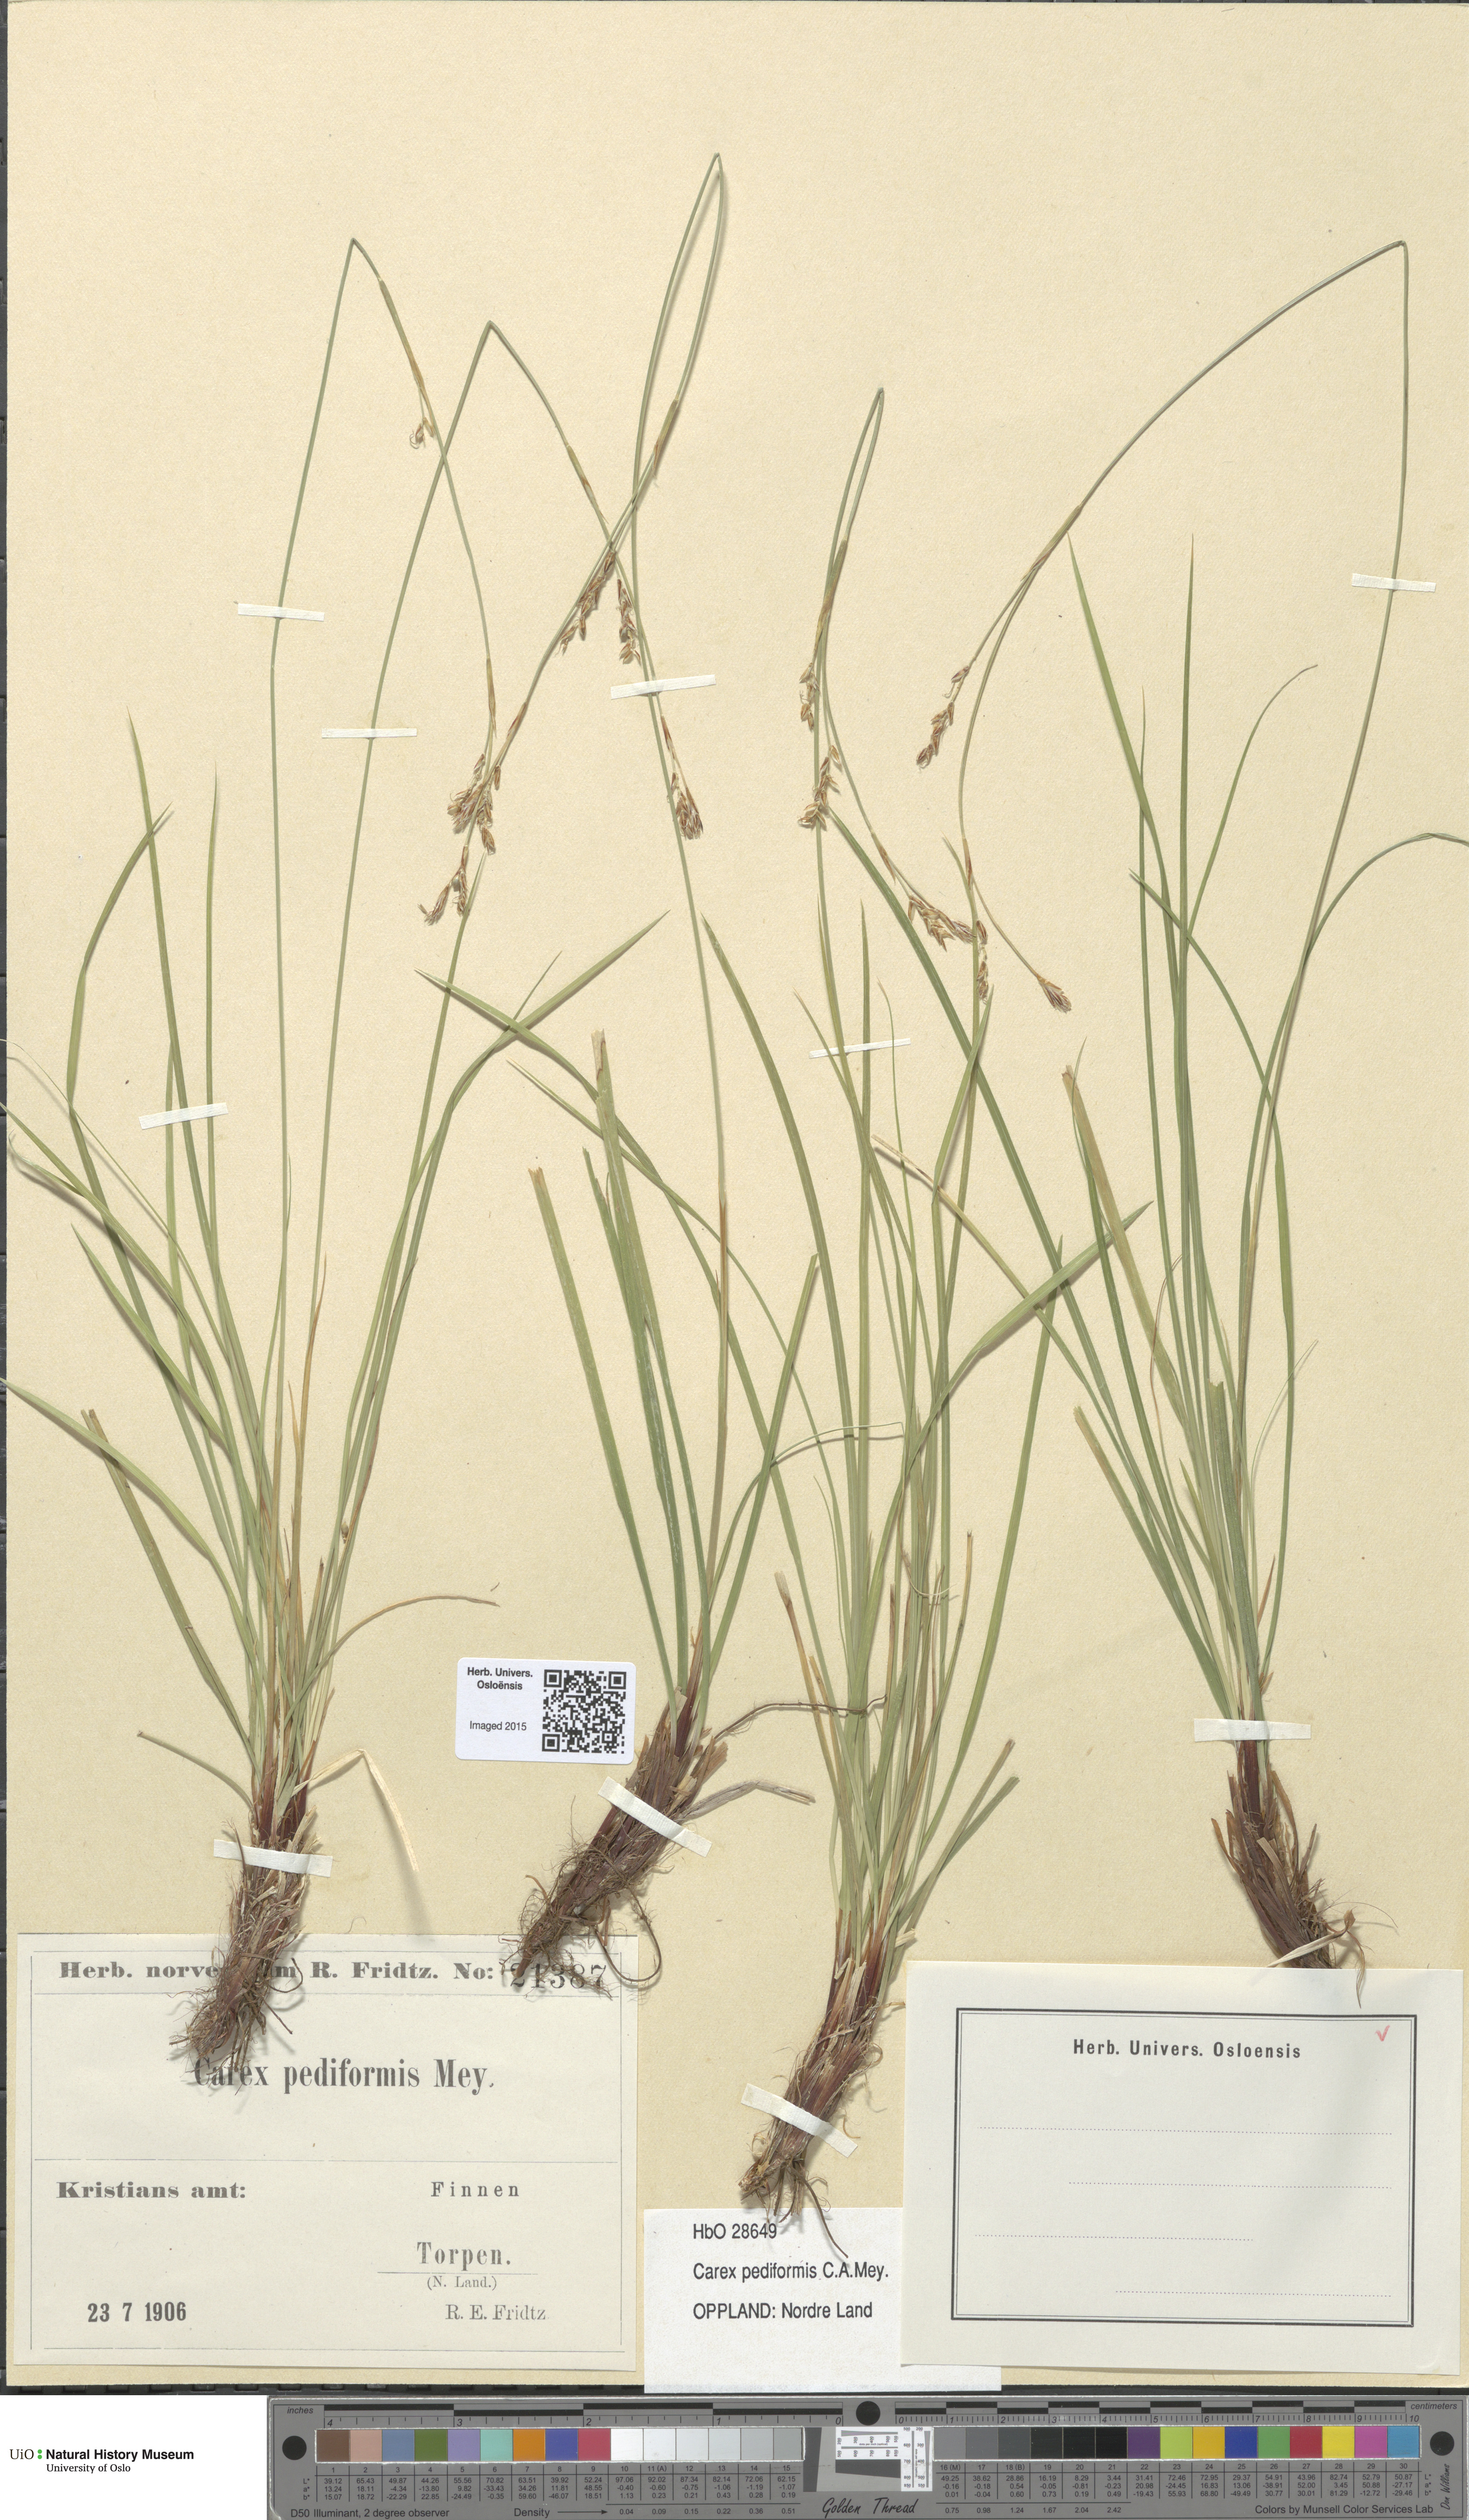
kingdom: Plantae
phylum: Tracheophyta
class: Liliopsida
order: Poales
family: Cyperaceae
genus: Carex
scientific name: Carex rhizina
